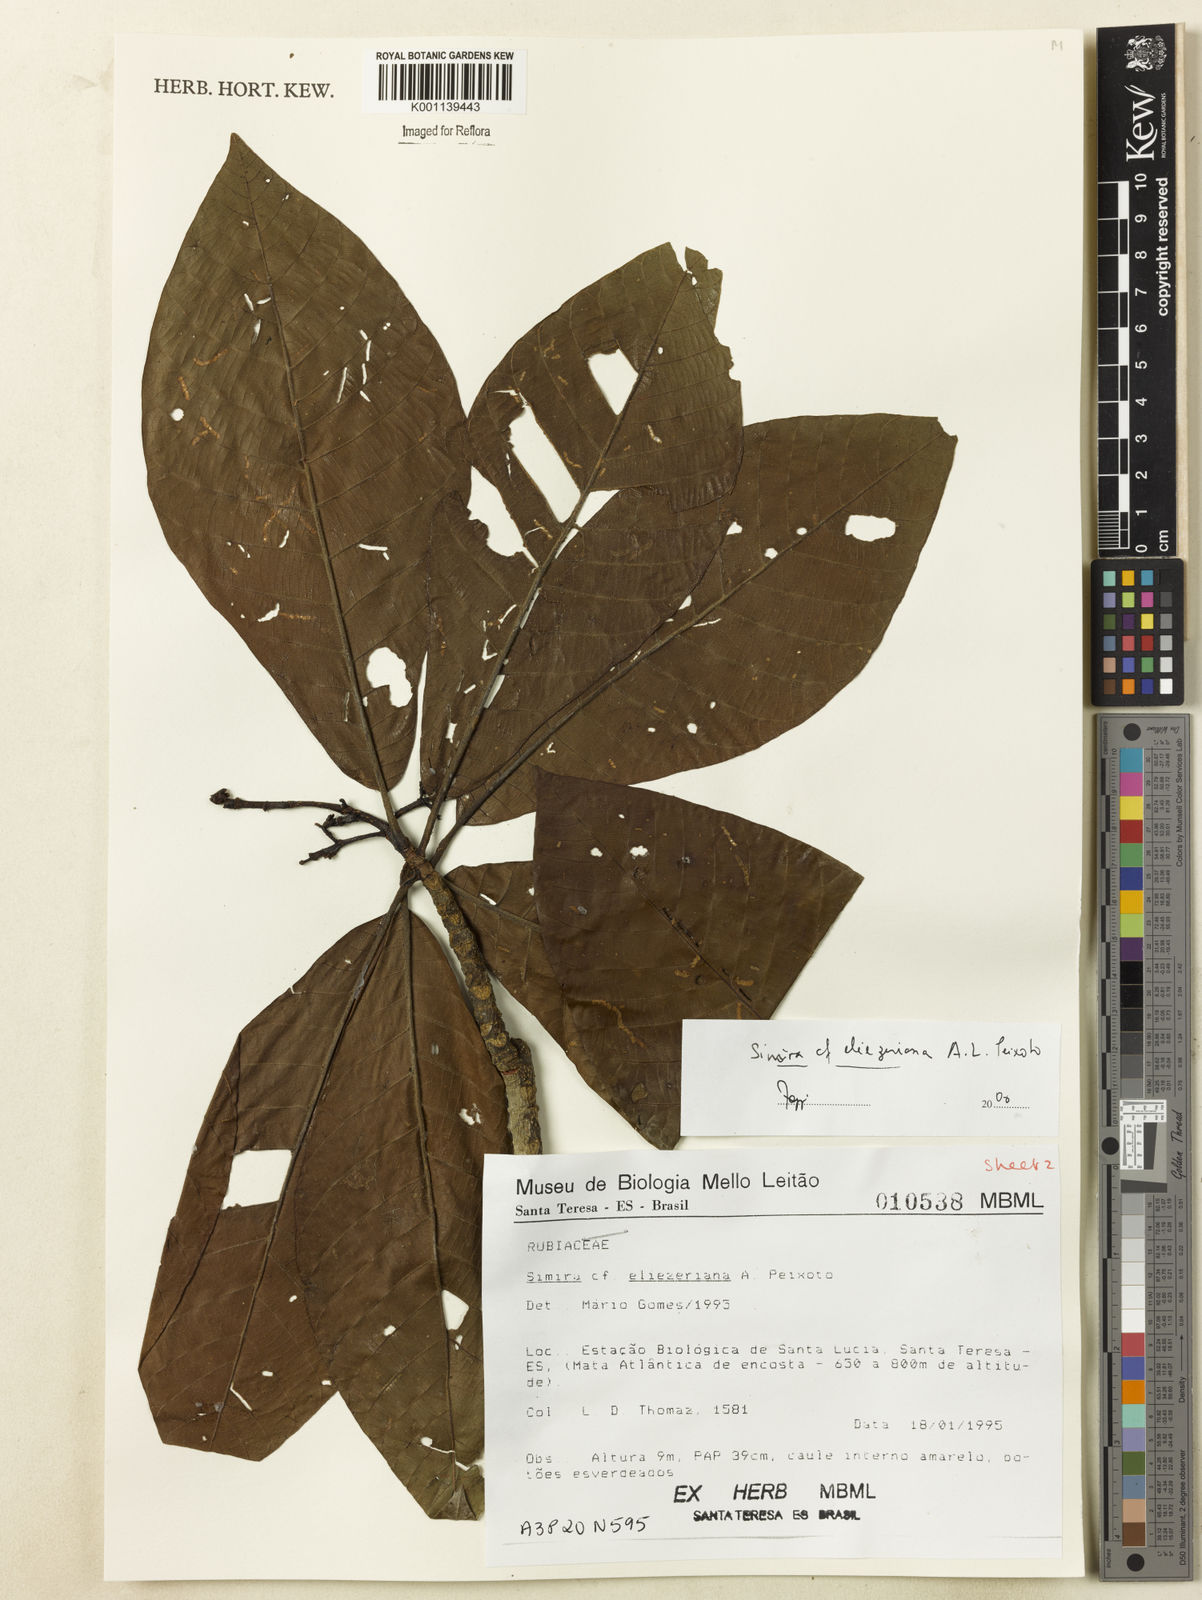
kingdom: Plantae
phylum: Tracheophyta
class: Magnoliopsida
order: Gentianales
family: Rubiaceae
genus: Simira
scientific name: Simira eliezeriana
